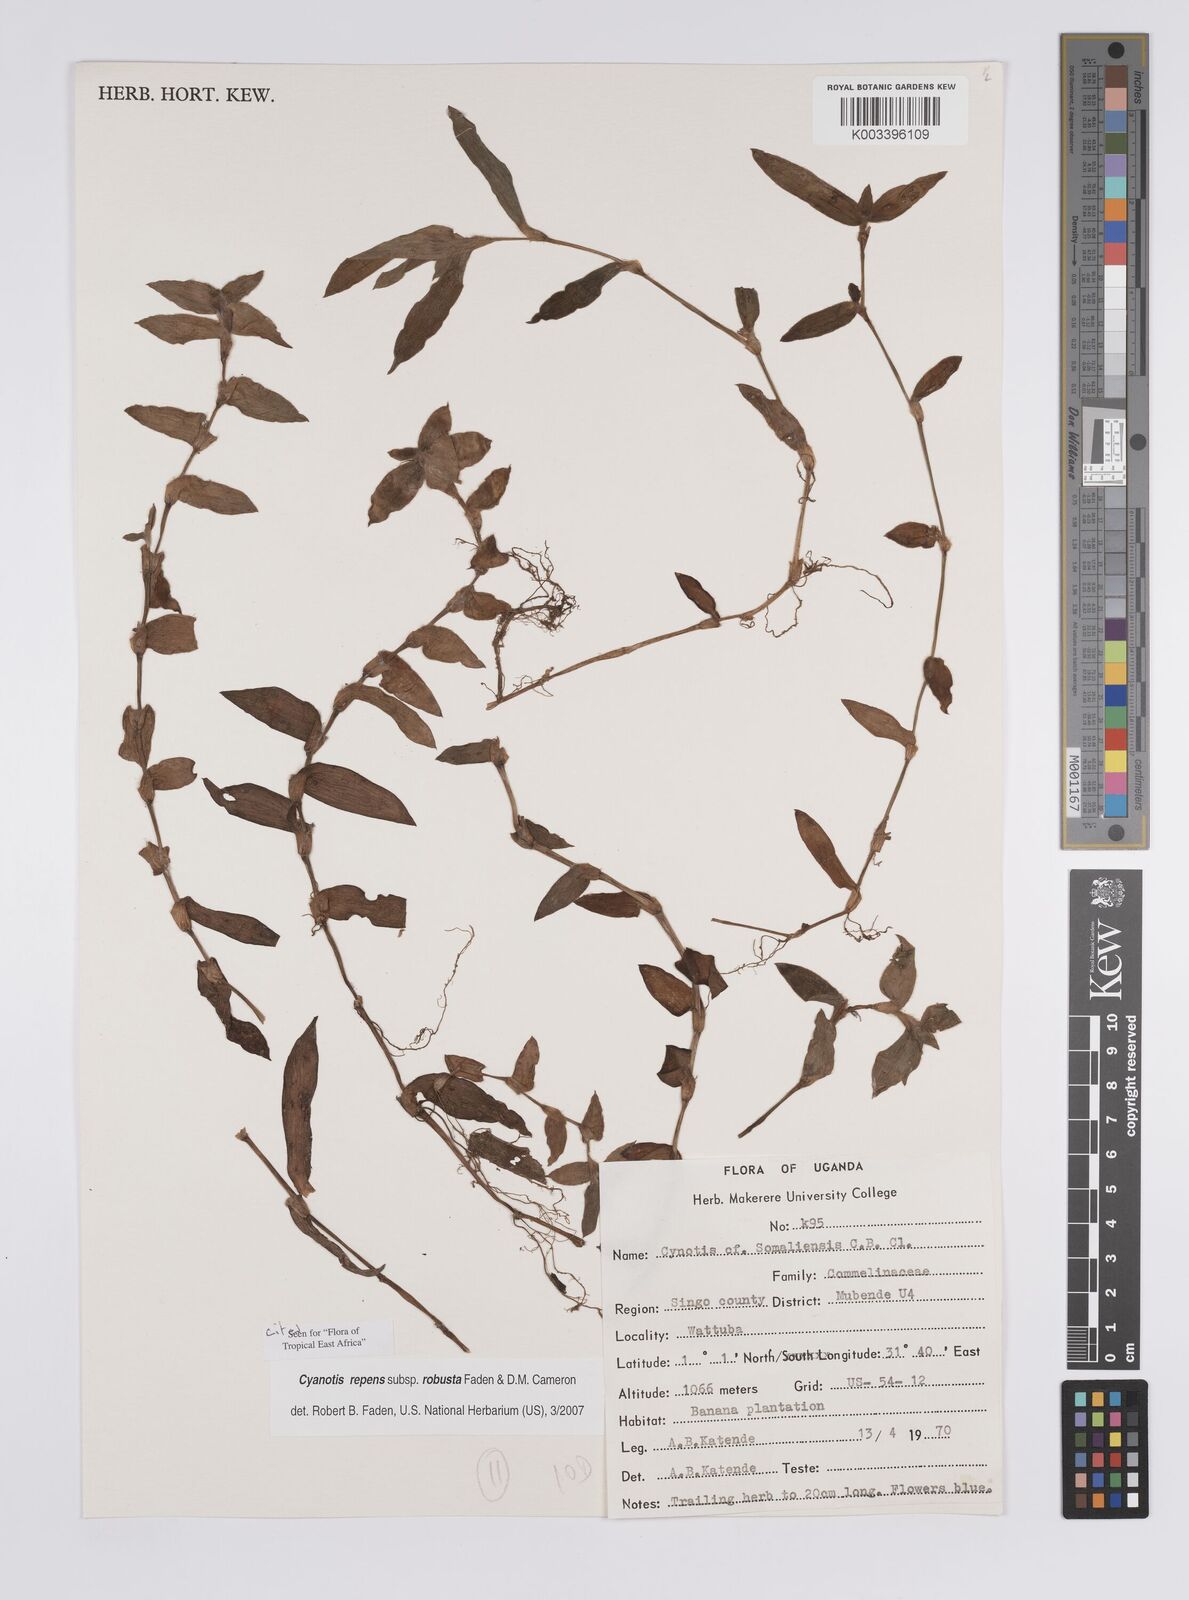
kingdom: Plantae
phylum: Tracheophyta
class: Liliopsida
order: Commelinales
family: Commelinaceae
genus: Cyanotis
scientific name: Cyanotis repens
